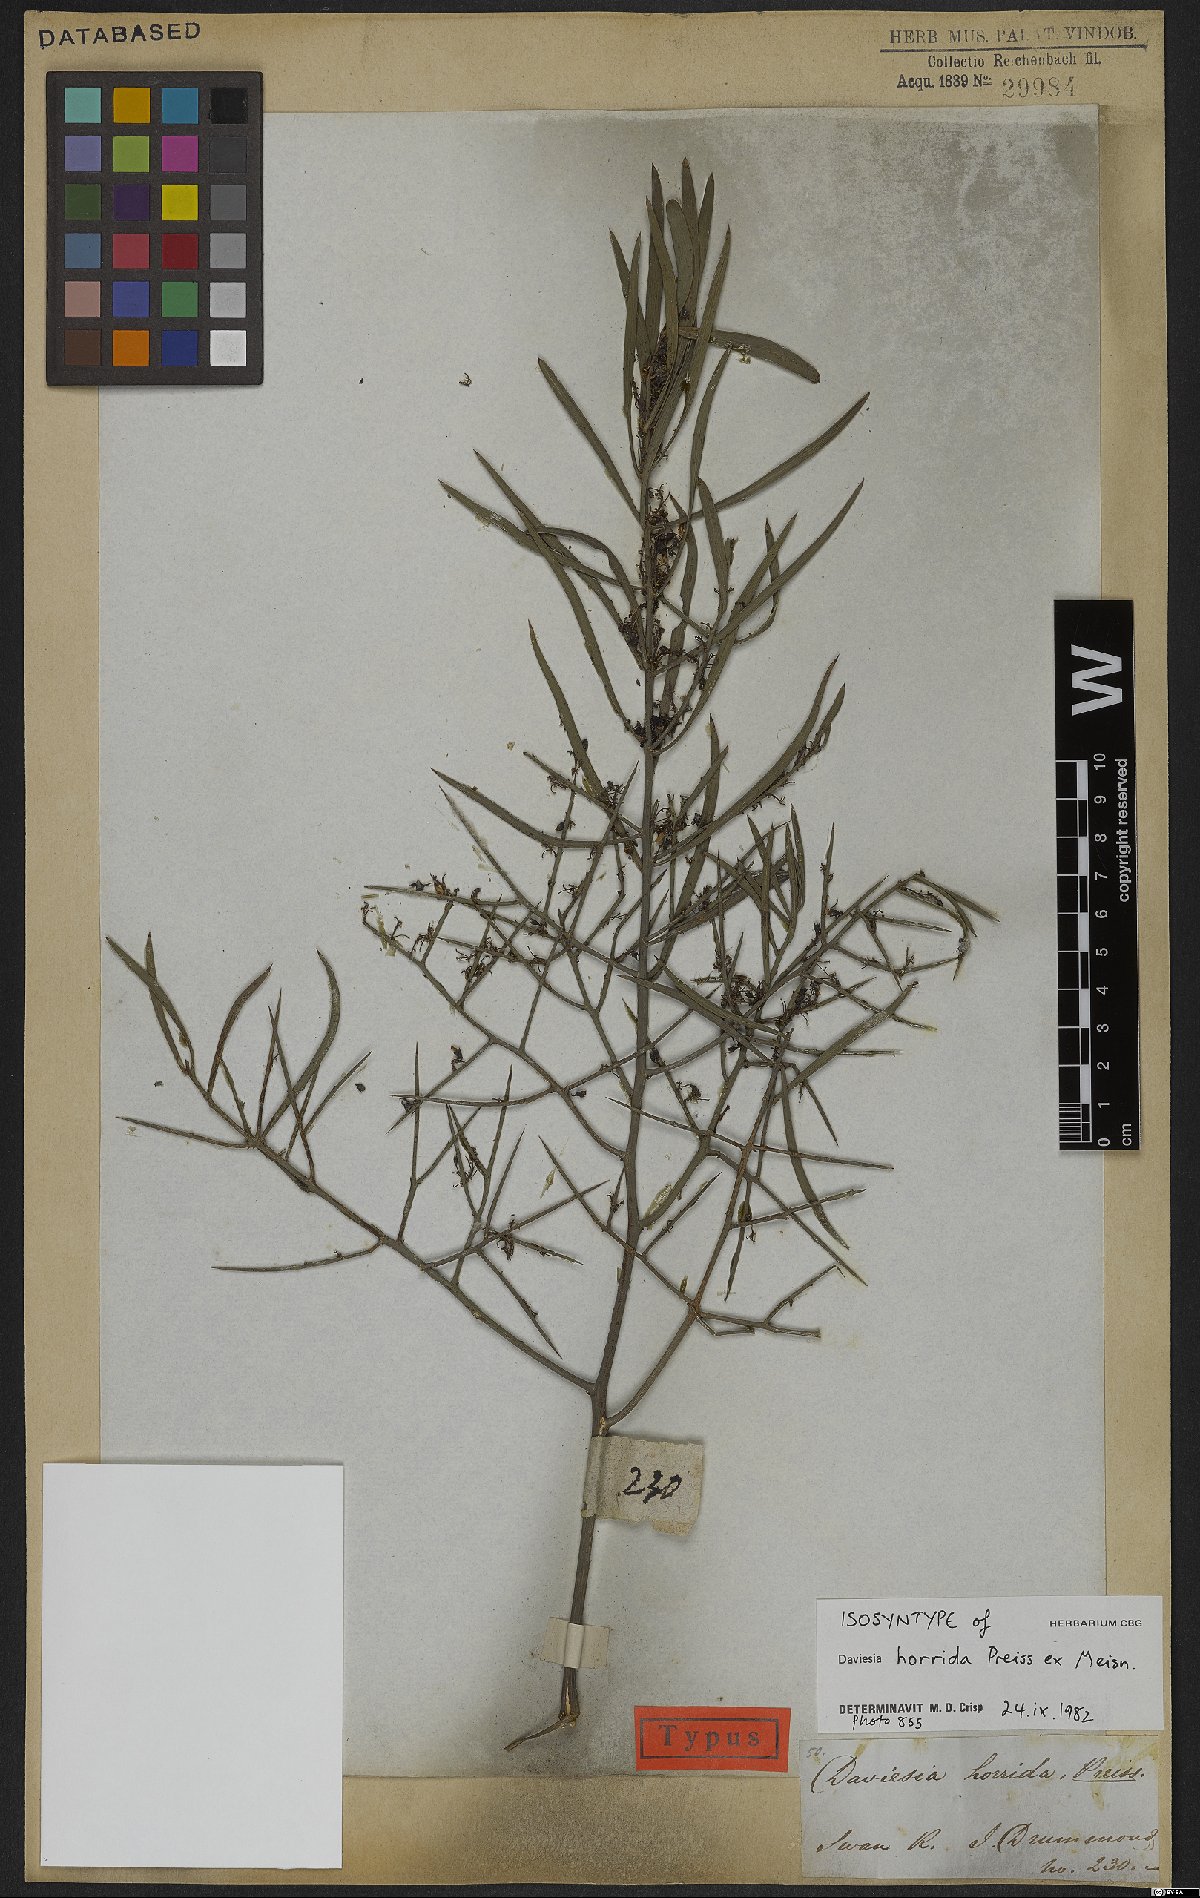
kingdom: Plantae
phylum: Tracheophyta
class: Magnoliopsida
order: Fabales
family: Fabaceae
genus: Daviesia
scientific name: Daviesia horrida
